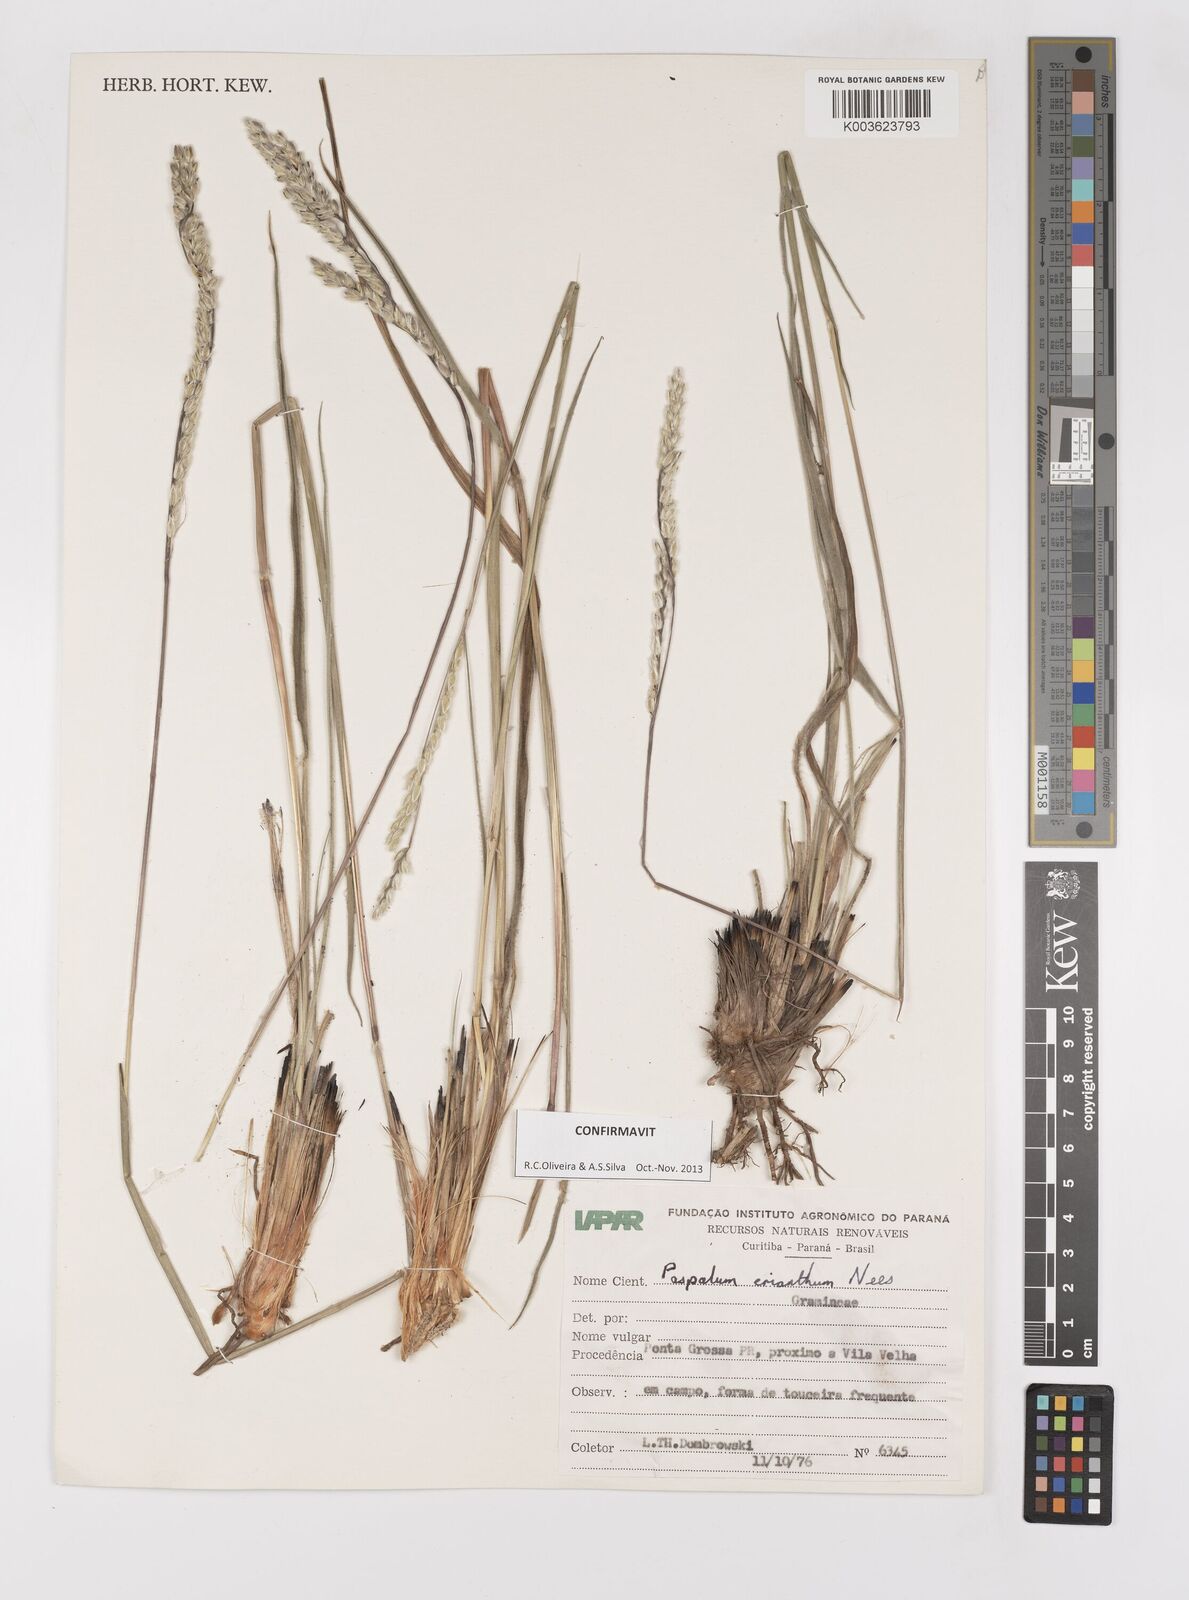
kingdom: Plantae
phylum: Tracheophyta
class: Liliopsida
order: Poales
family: Poaceae
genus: Paspalum
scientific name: Paspalum erianthum
